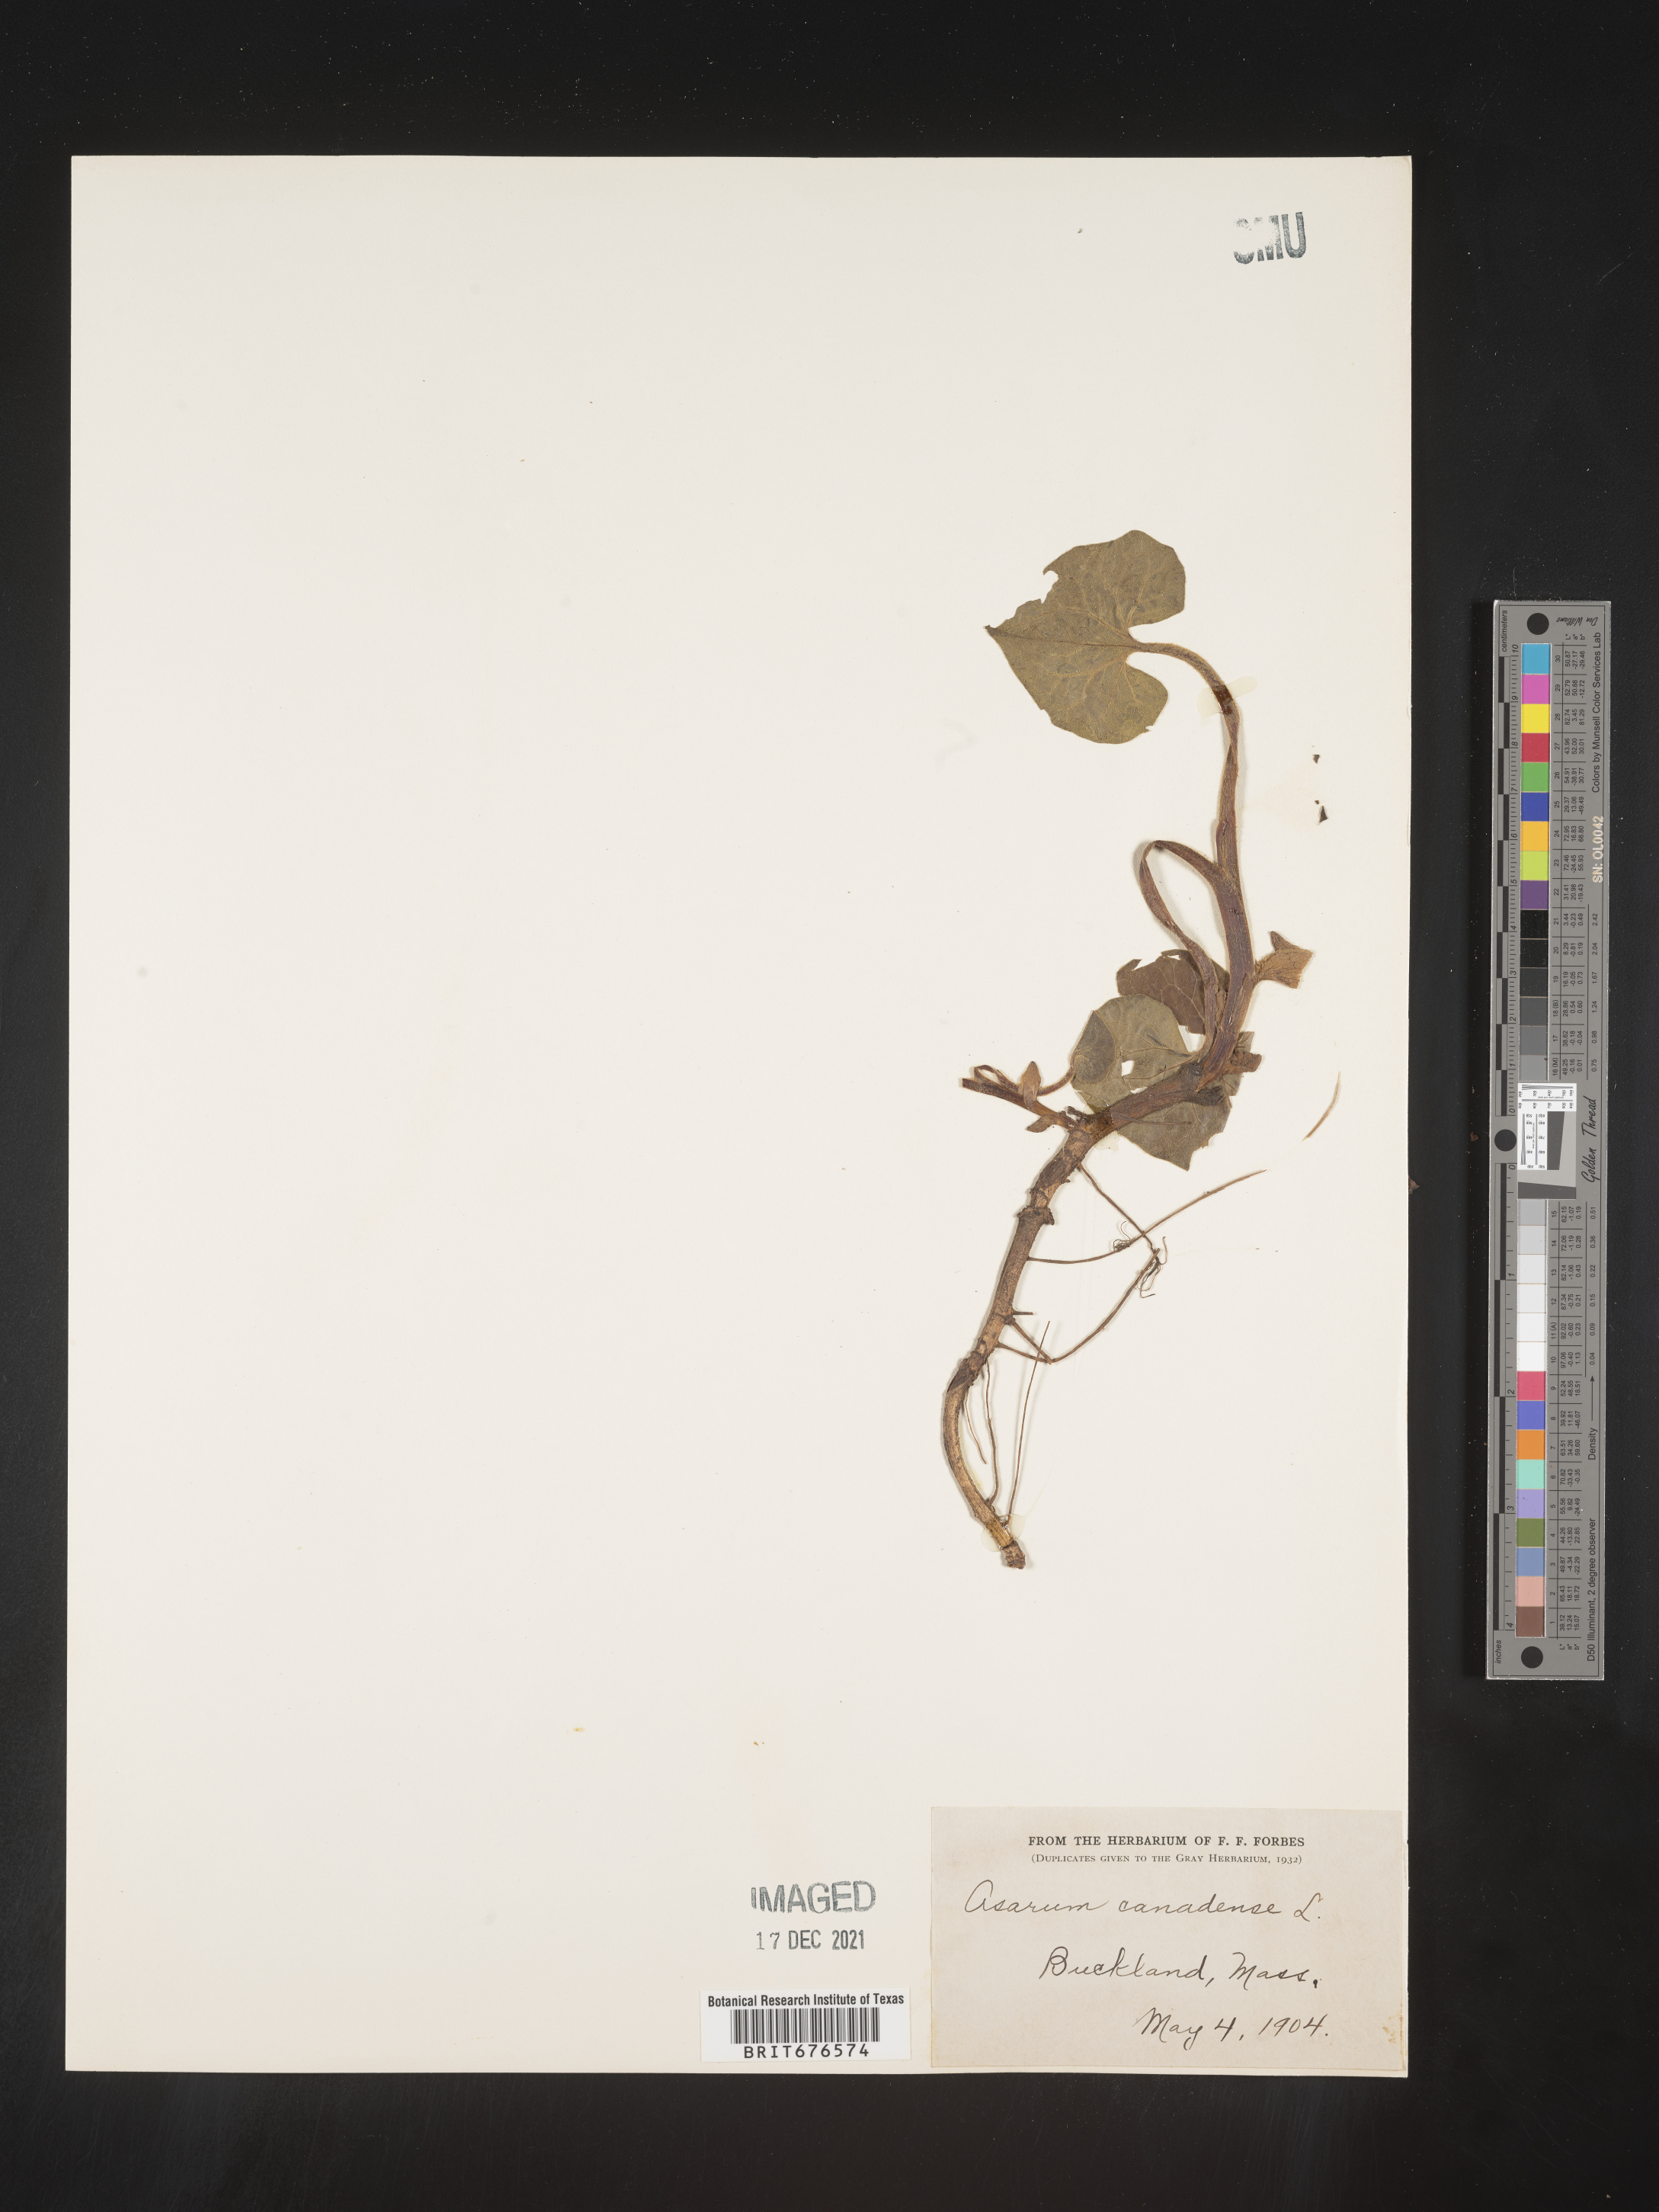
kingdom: Plantae
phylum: Tracheophyta
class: Magnoliopsida
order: Piperales
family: Aristolochiaceae
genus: Asarum
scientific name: Asarum canadense
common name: Wild ginger
